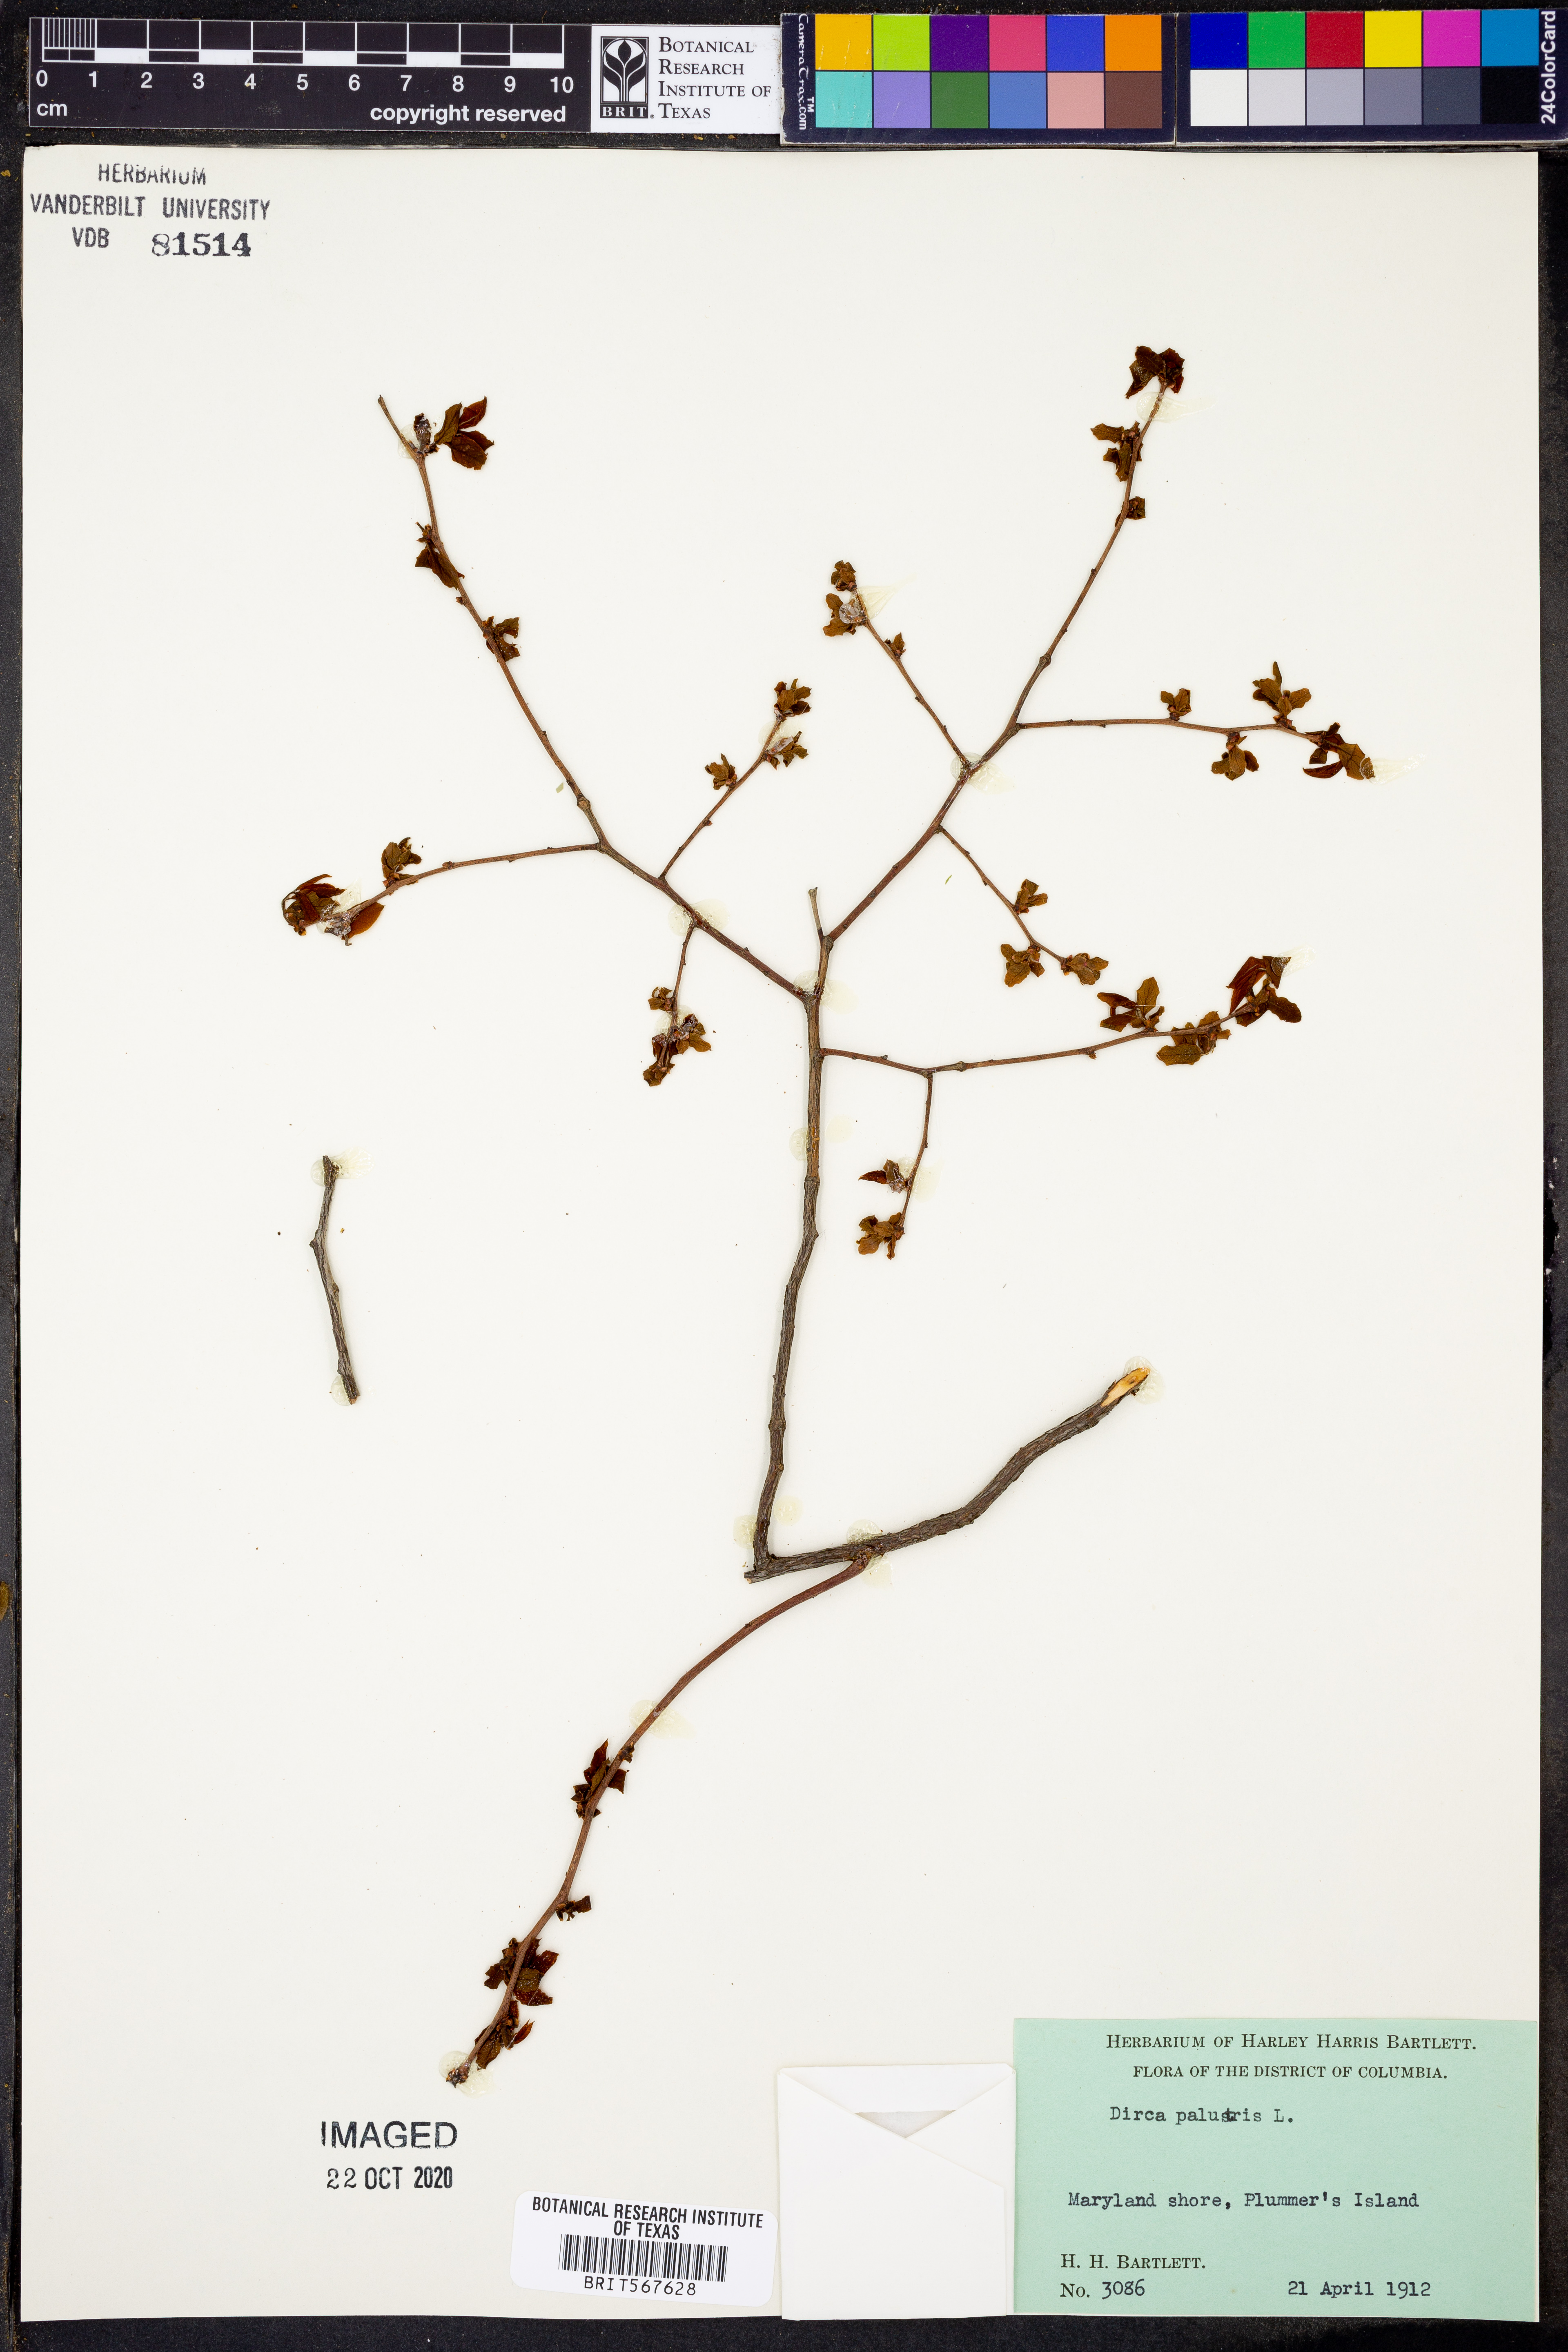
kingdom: Plantae
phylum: Tracheophyta
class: Magnoliopsida
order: Malvales
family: Thymelaeaceae
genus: Dirca
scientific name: Dirca palustris
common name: Leatherwood
